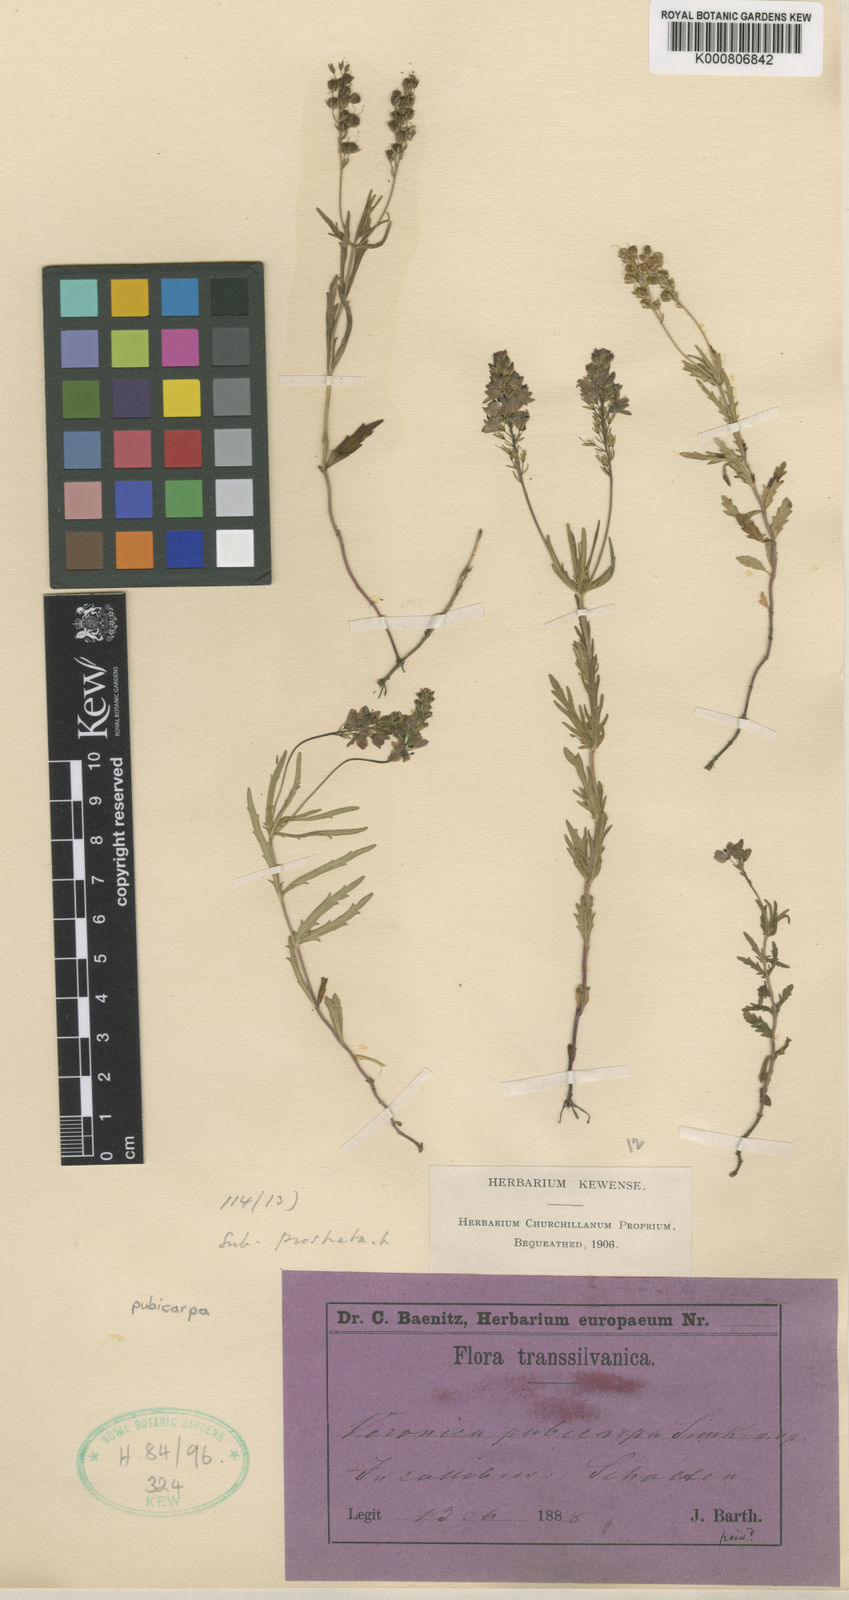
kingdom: Plantae
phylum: Tracheophyta
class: Magnoliopsida
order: Lamiales
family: Plantaginaceae
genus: Veronica
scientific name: Veronica austriaca
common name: Large speedwell
